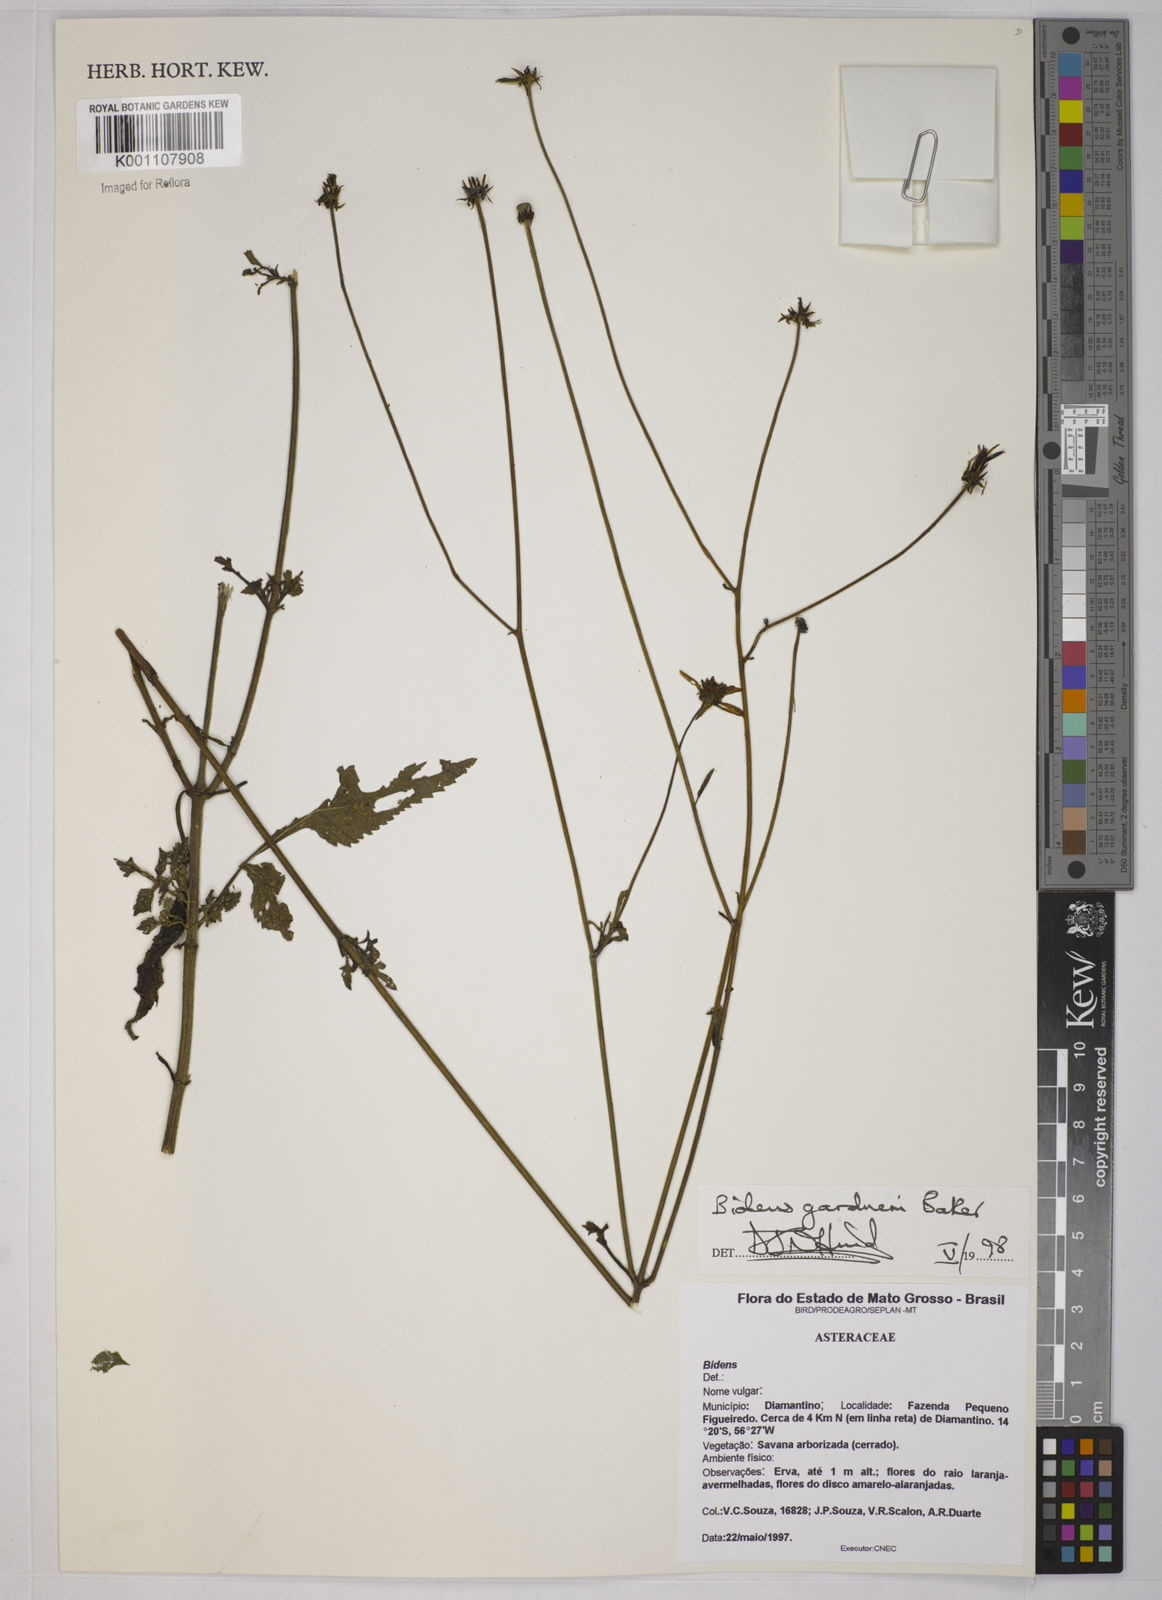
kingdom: Plantae
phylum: Tracheophyta
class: Magnoliopsida
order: Asterales
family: Asteraceae
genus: Bidens
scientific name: Bidens gardneri
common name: Ridge beggartick
